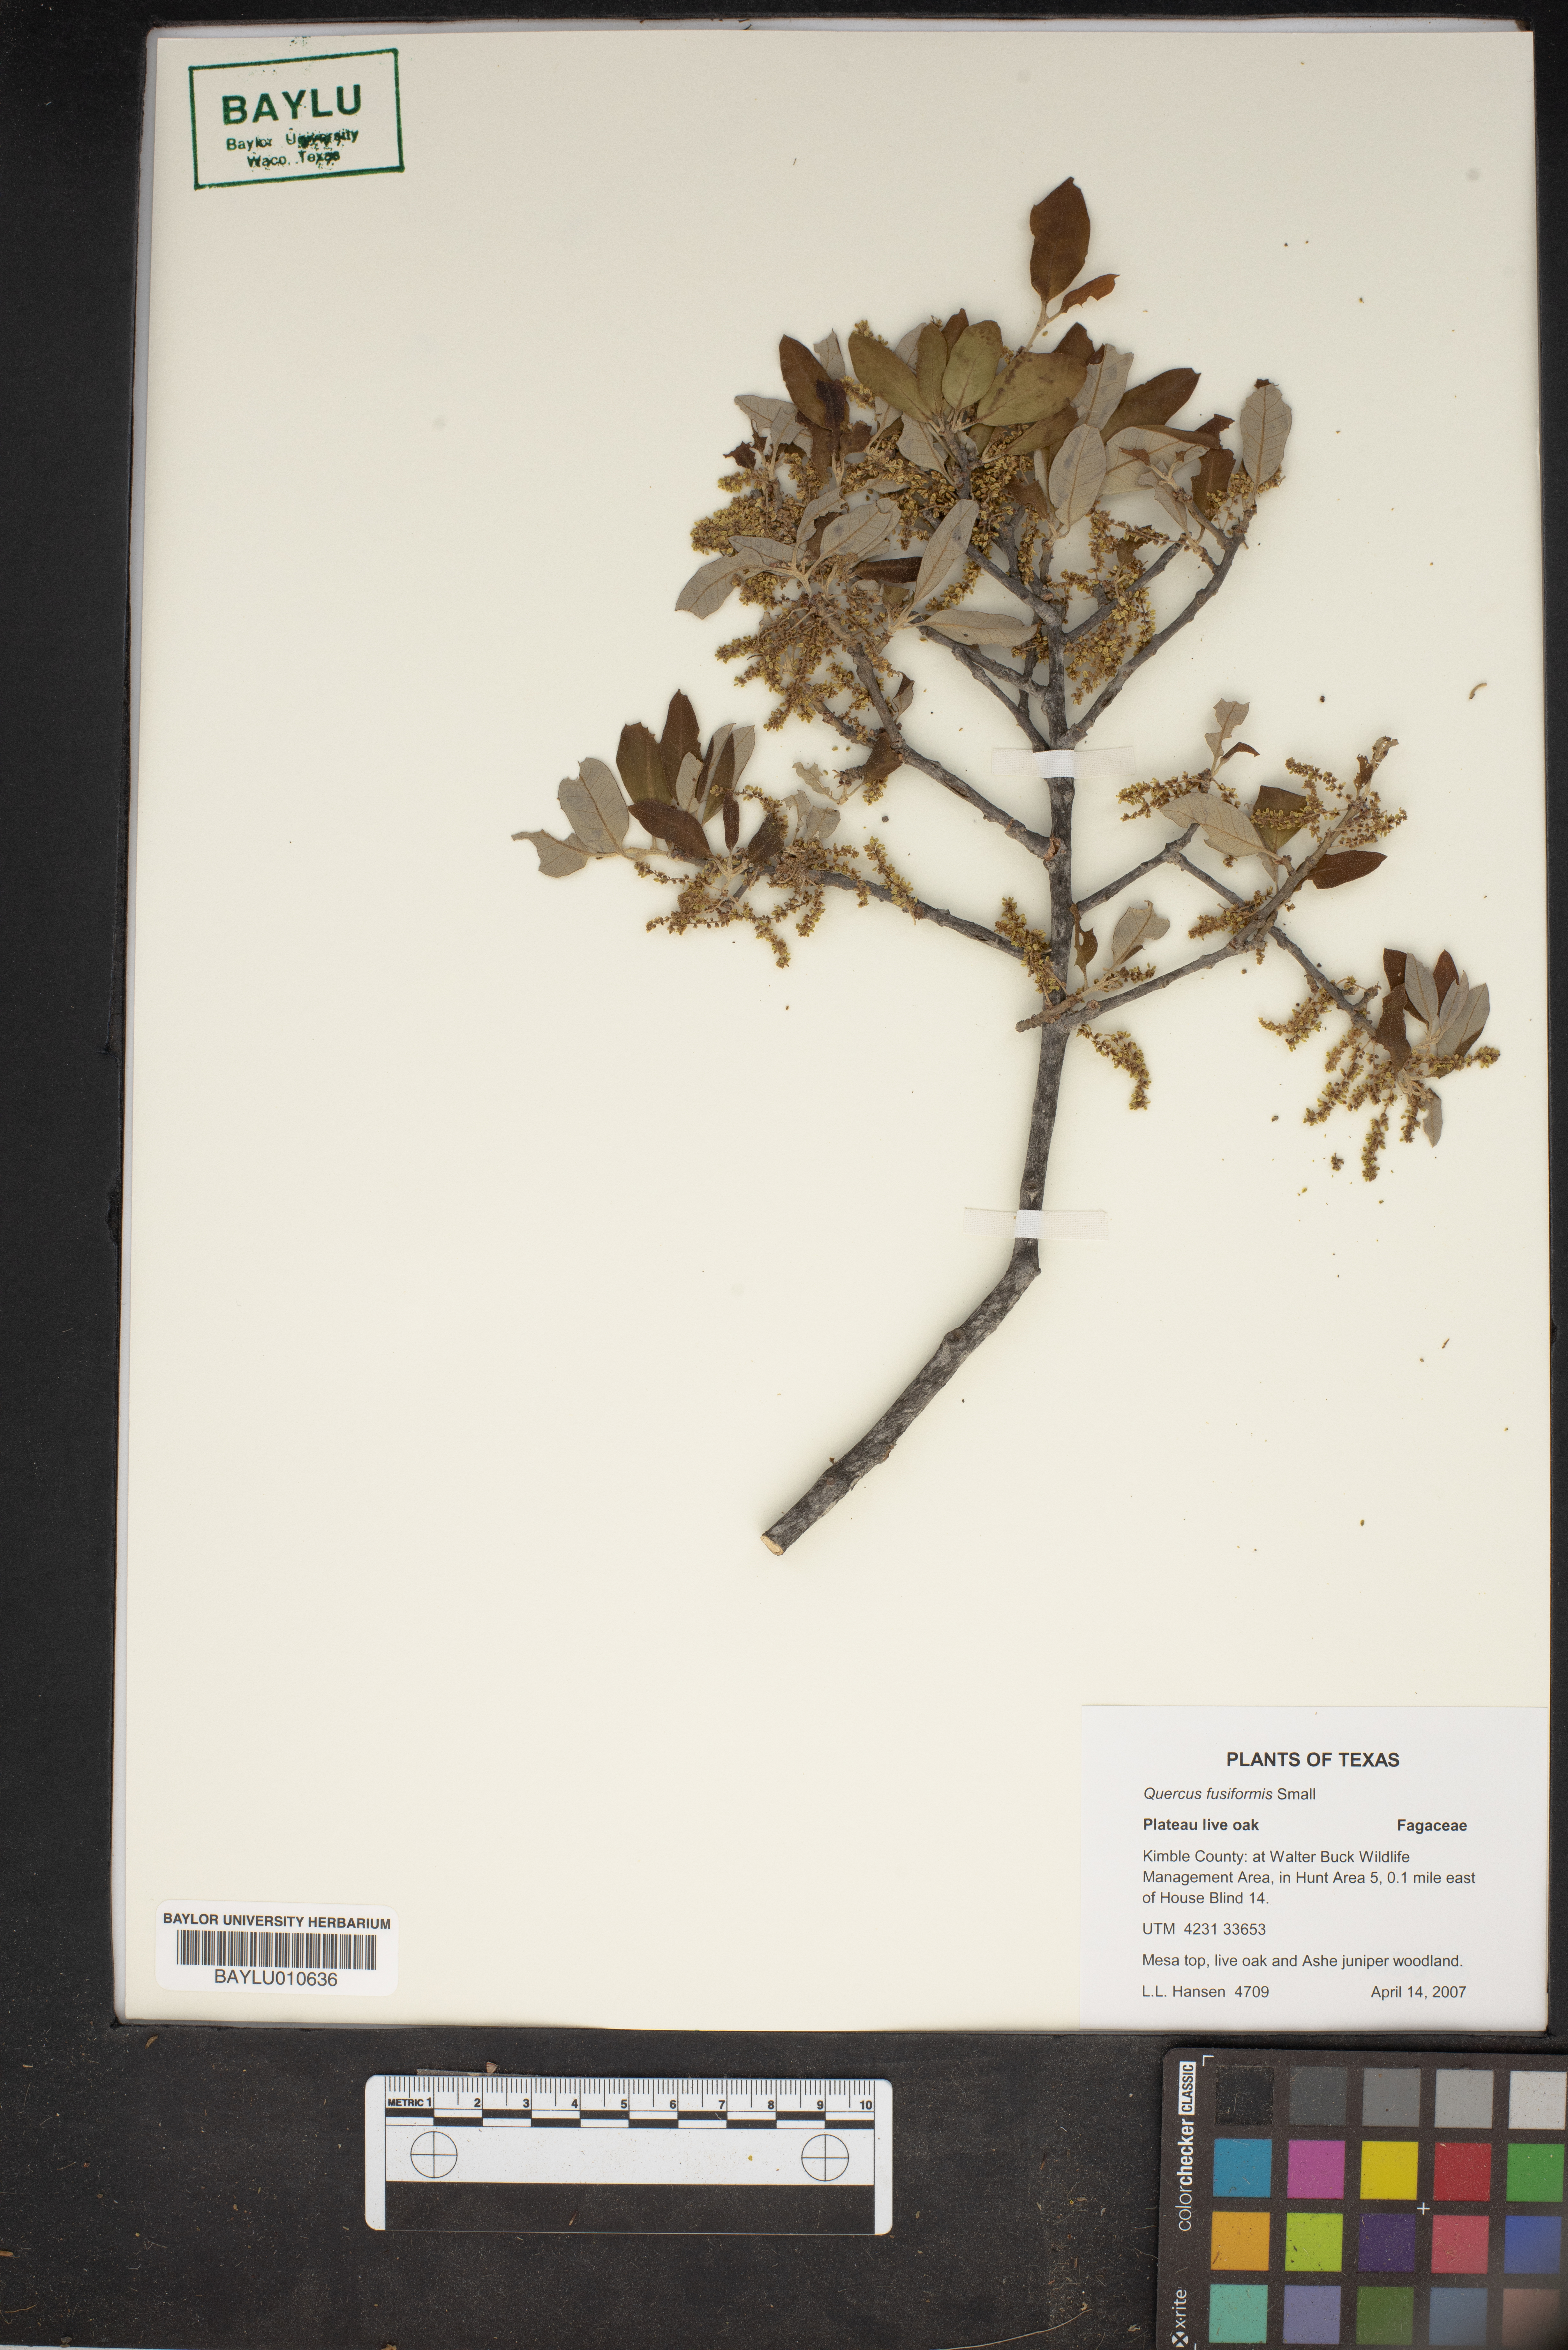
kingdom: Plantae
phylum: Tracheophyta
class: Magnoliopsida
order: Fagales
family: Fagaceae
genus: Quercus
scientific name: Quercus fusiformis
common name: Texas live oak
